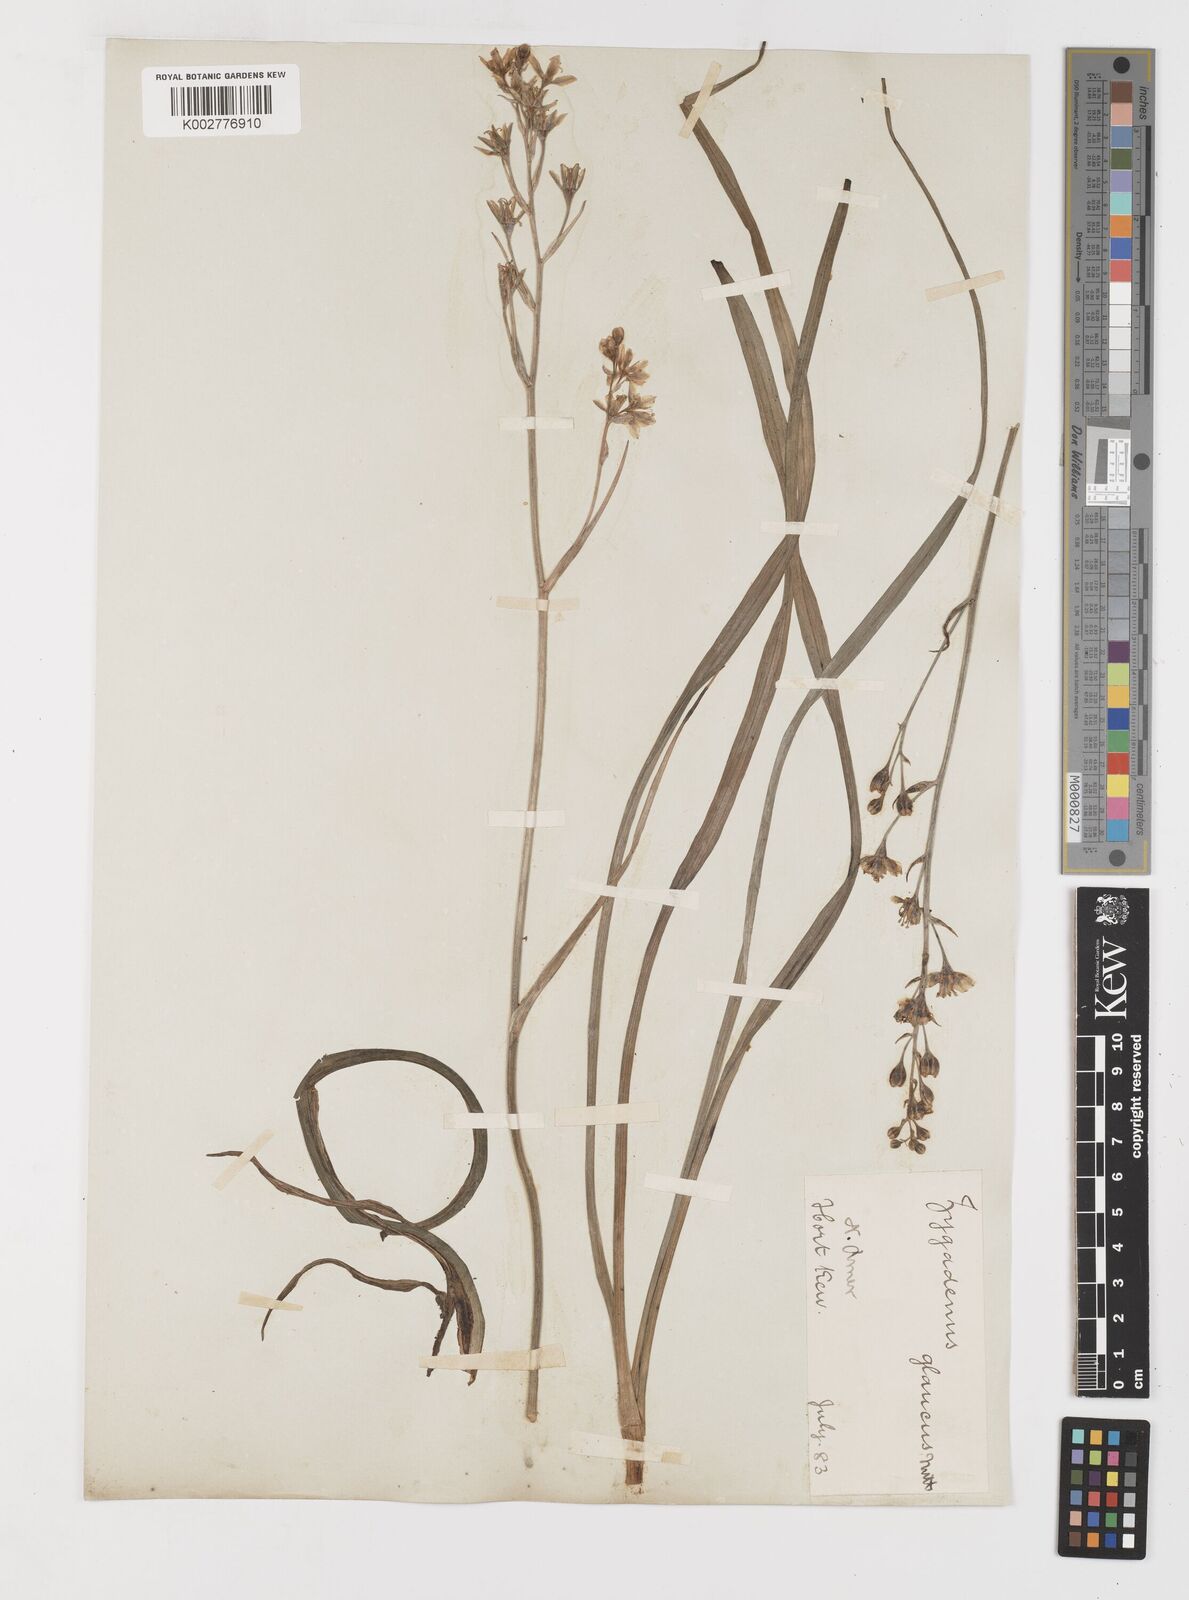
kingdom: Plantae
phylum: Tracheophyta
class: Liliopsida
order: Liliales
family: Melanthiaceae
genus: Anticlea
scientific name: Anticlea elegans
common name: Mountain death camas
